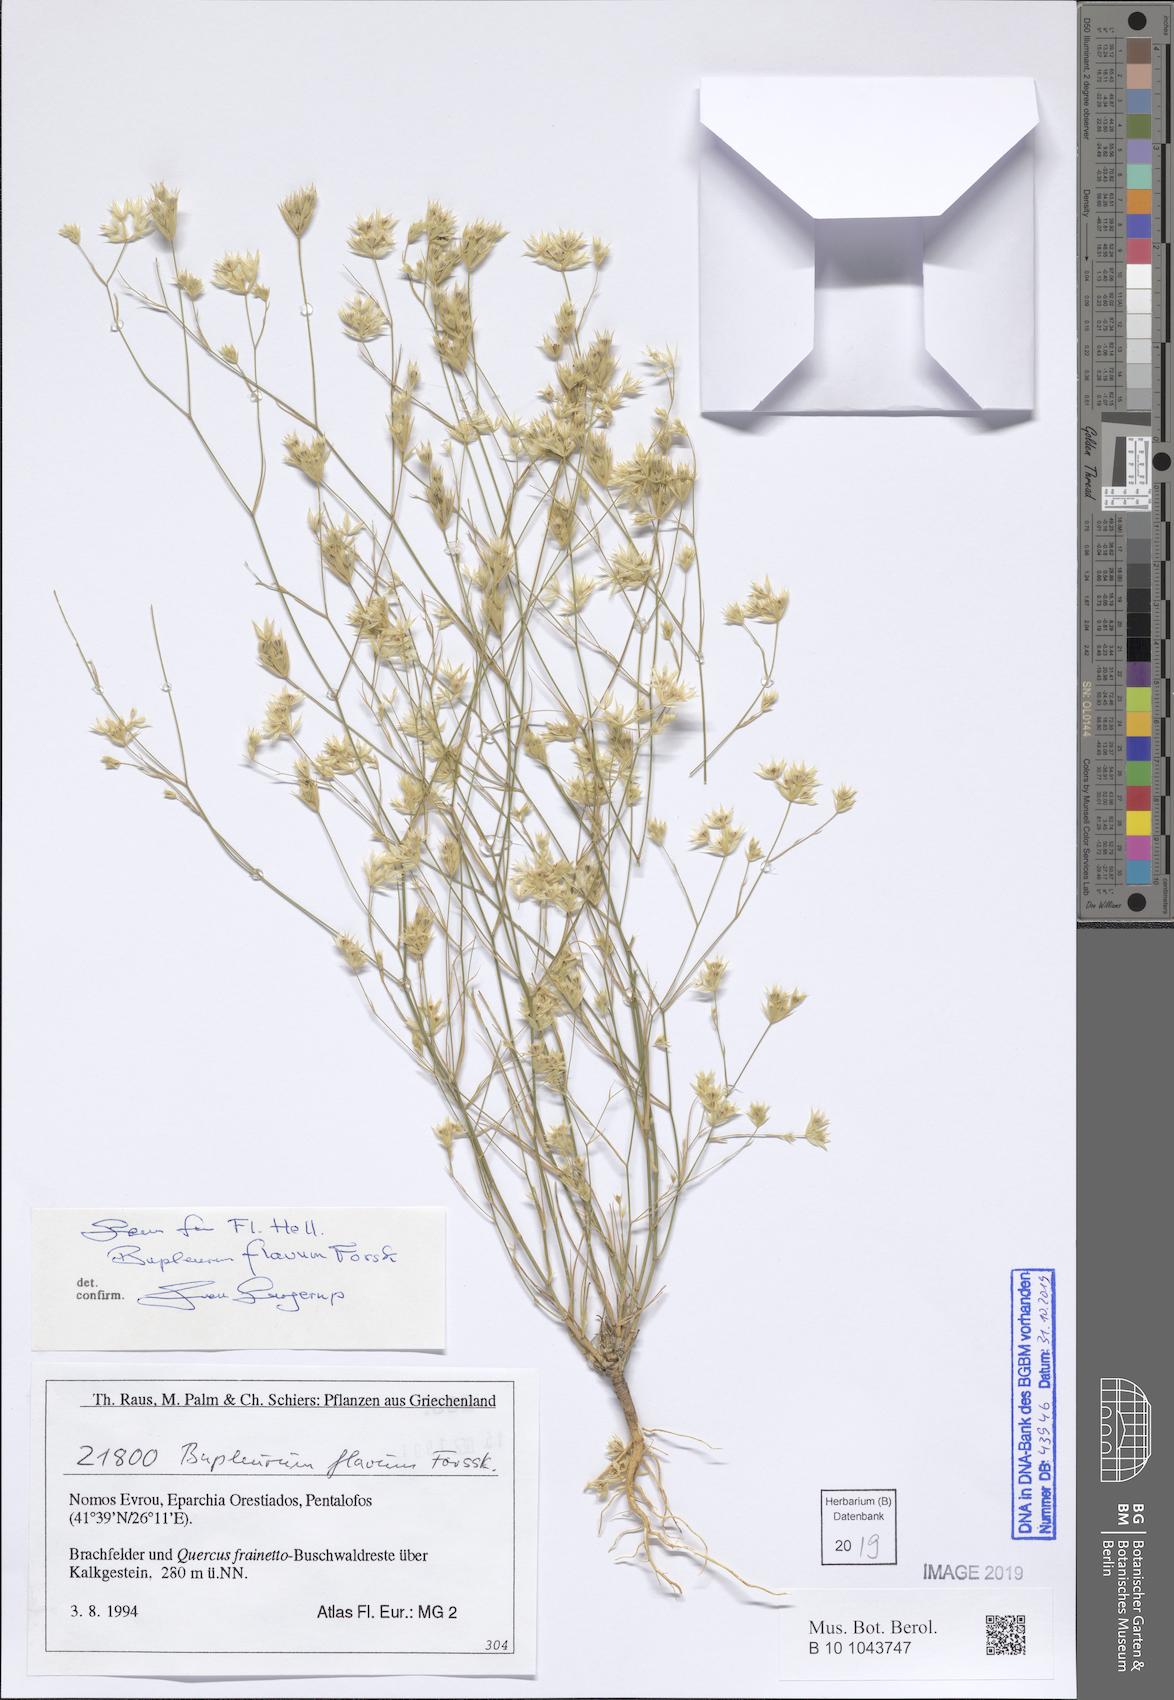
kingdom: Plantae
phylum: Tracheophyta
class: Magnoliopsida
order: Apiales
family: Apiaceae
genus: Bupleurum
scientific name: Bupleurum flavum
